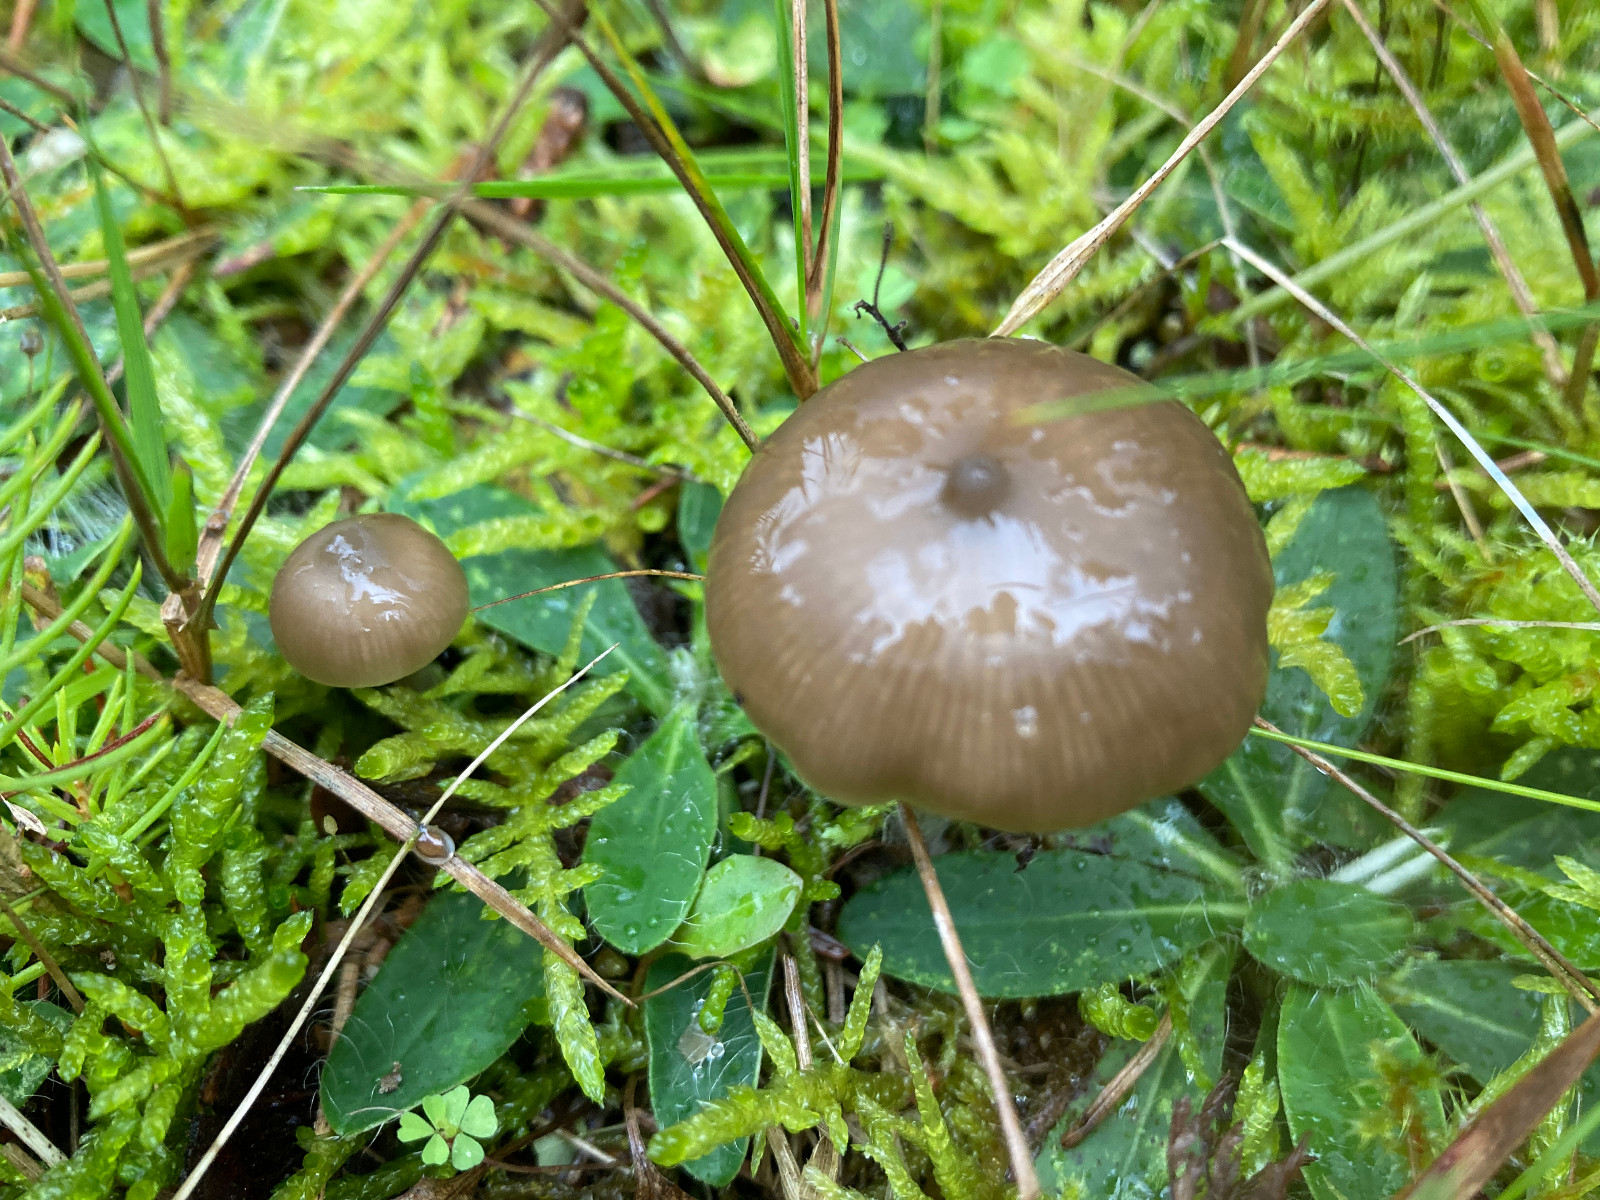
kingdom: Fungi
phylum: Basidiomycota
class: Agaricomycetes
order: Agaricales
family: Entolomataceae
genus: Entoloma
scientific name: Entoloma
